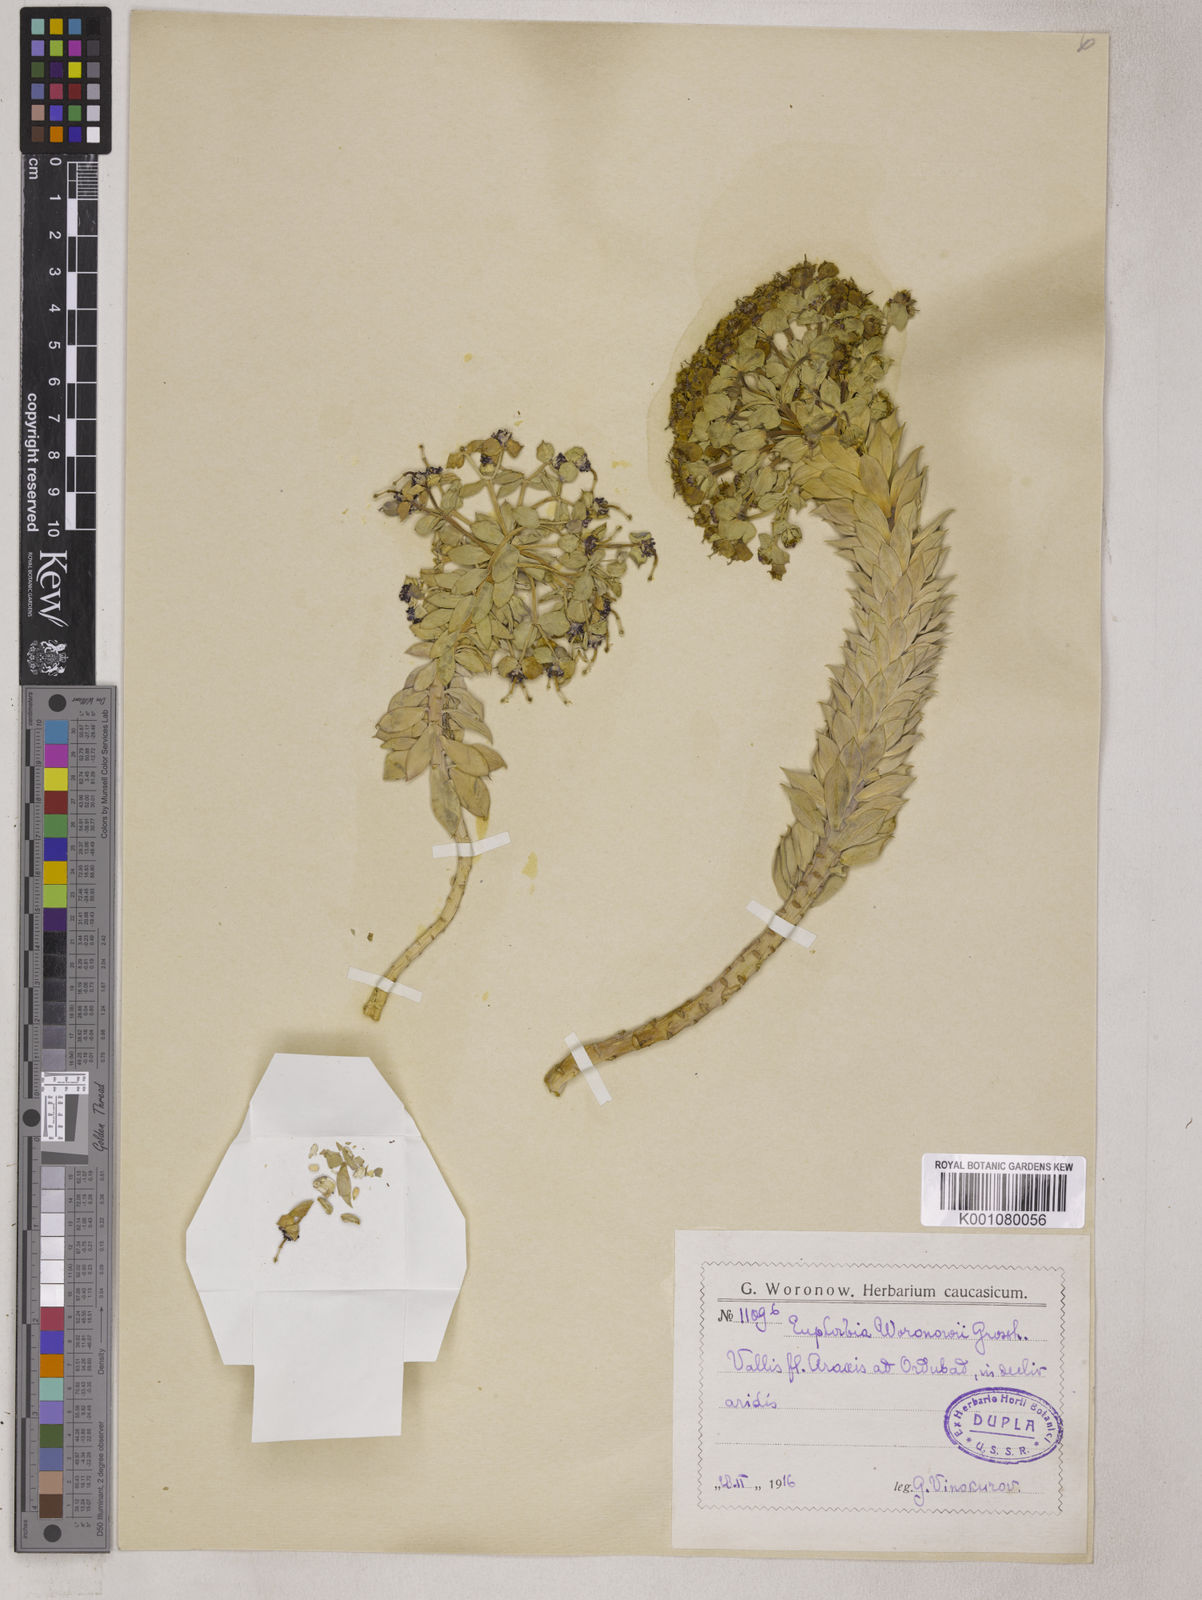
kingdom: Plantae
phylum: Tracheophyta
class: Magnoliopsida
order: Malpighiales
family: Euphorbiaceae
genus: Euphorbia
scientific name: Euphorbia marschalliana
